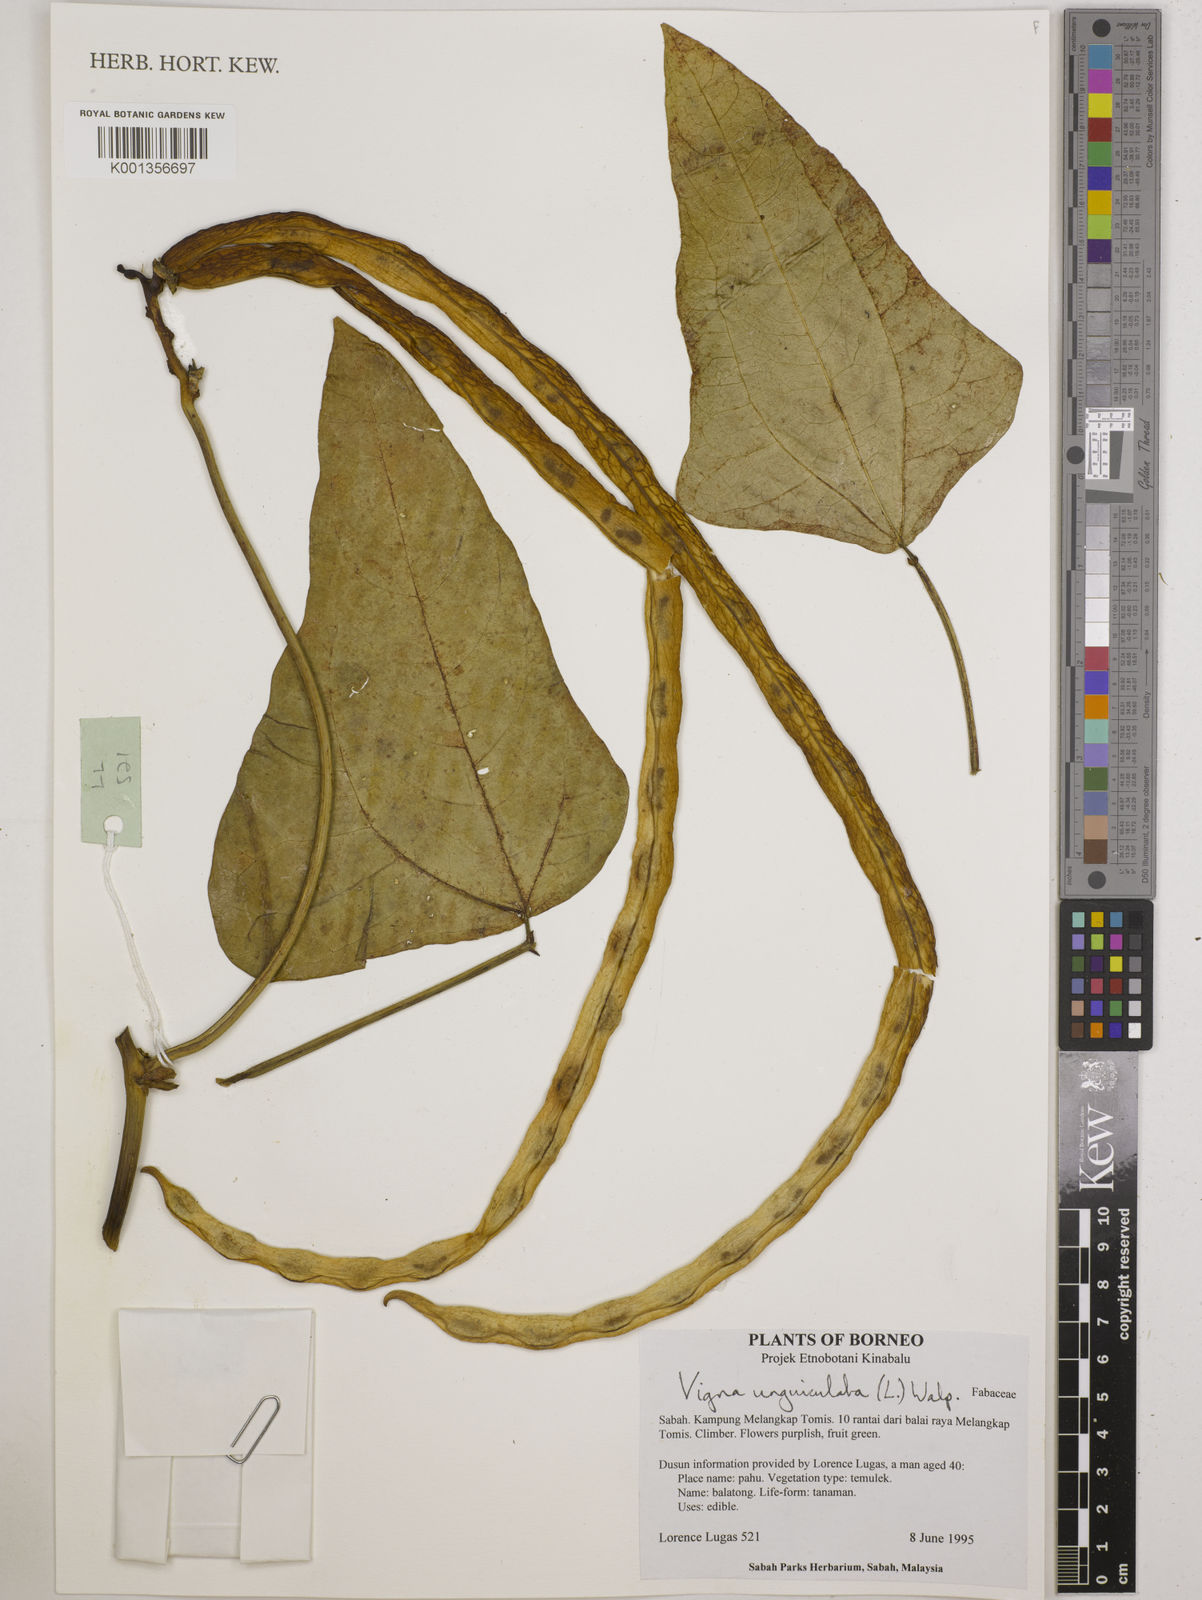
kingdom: Plantae
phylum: Tracheophyta
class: Magnoliopsida
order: Fabales
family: Fabaceae
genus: Vigna
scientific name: Vigna unguiculata
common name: Cowpea
